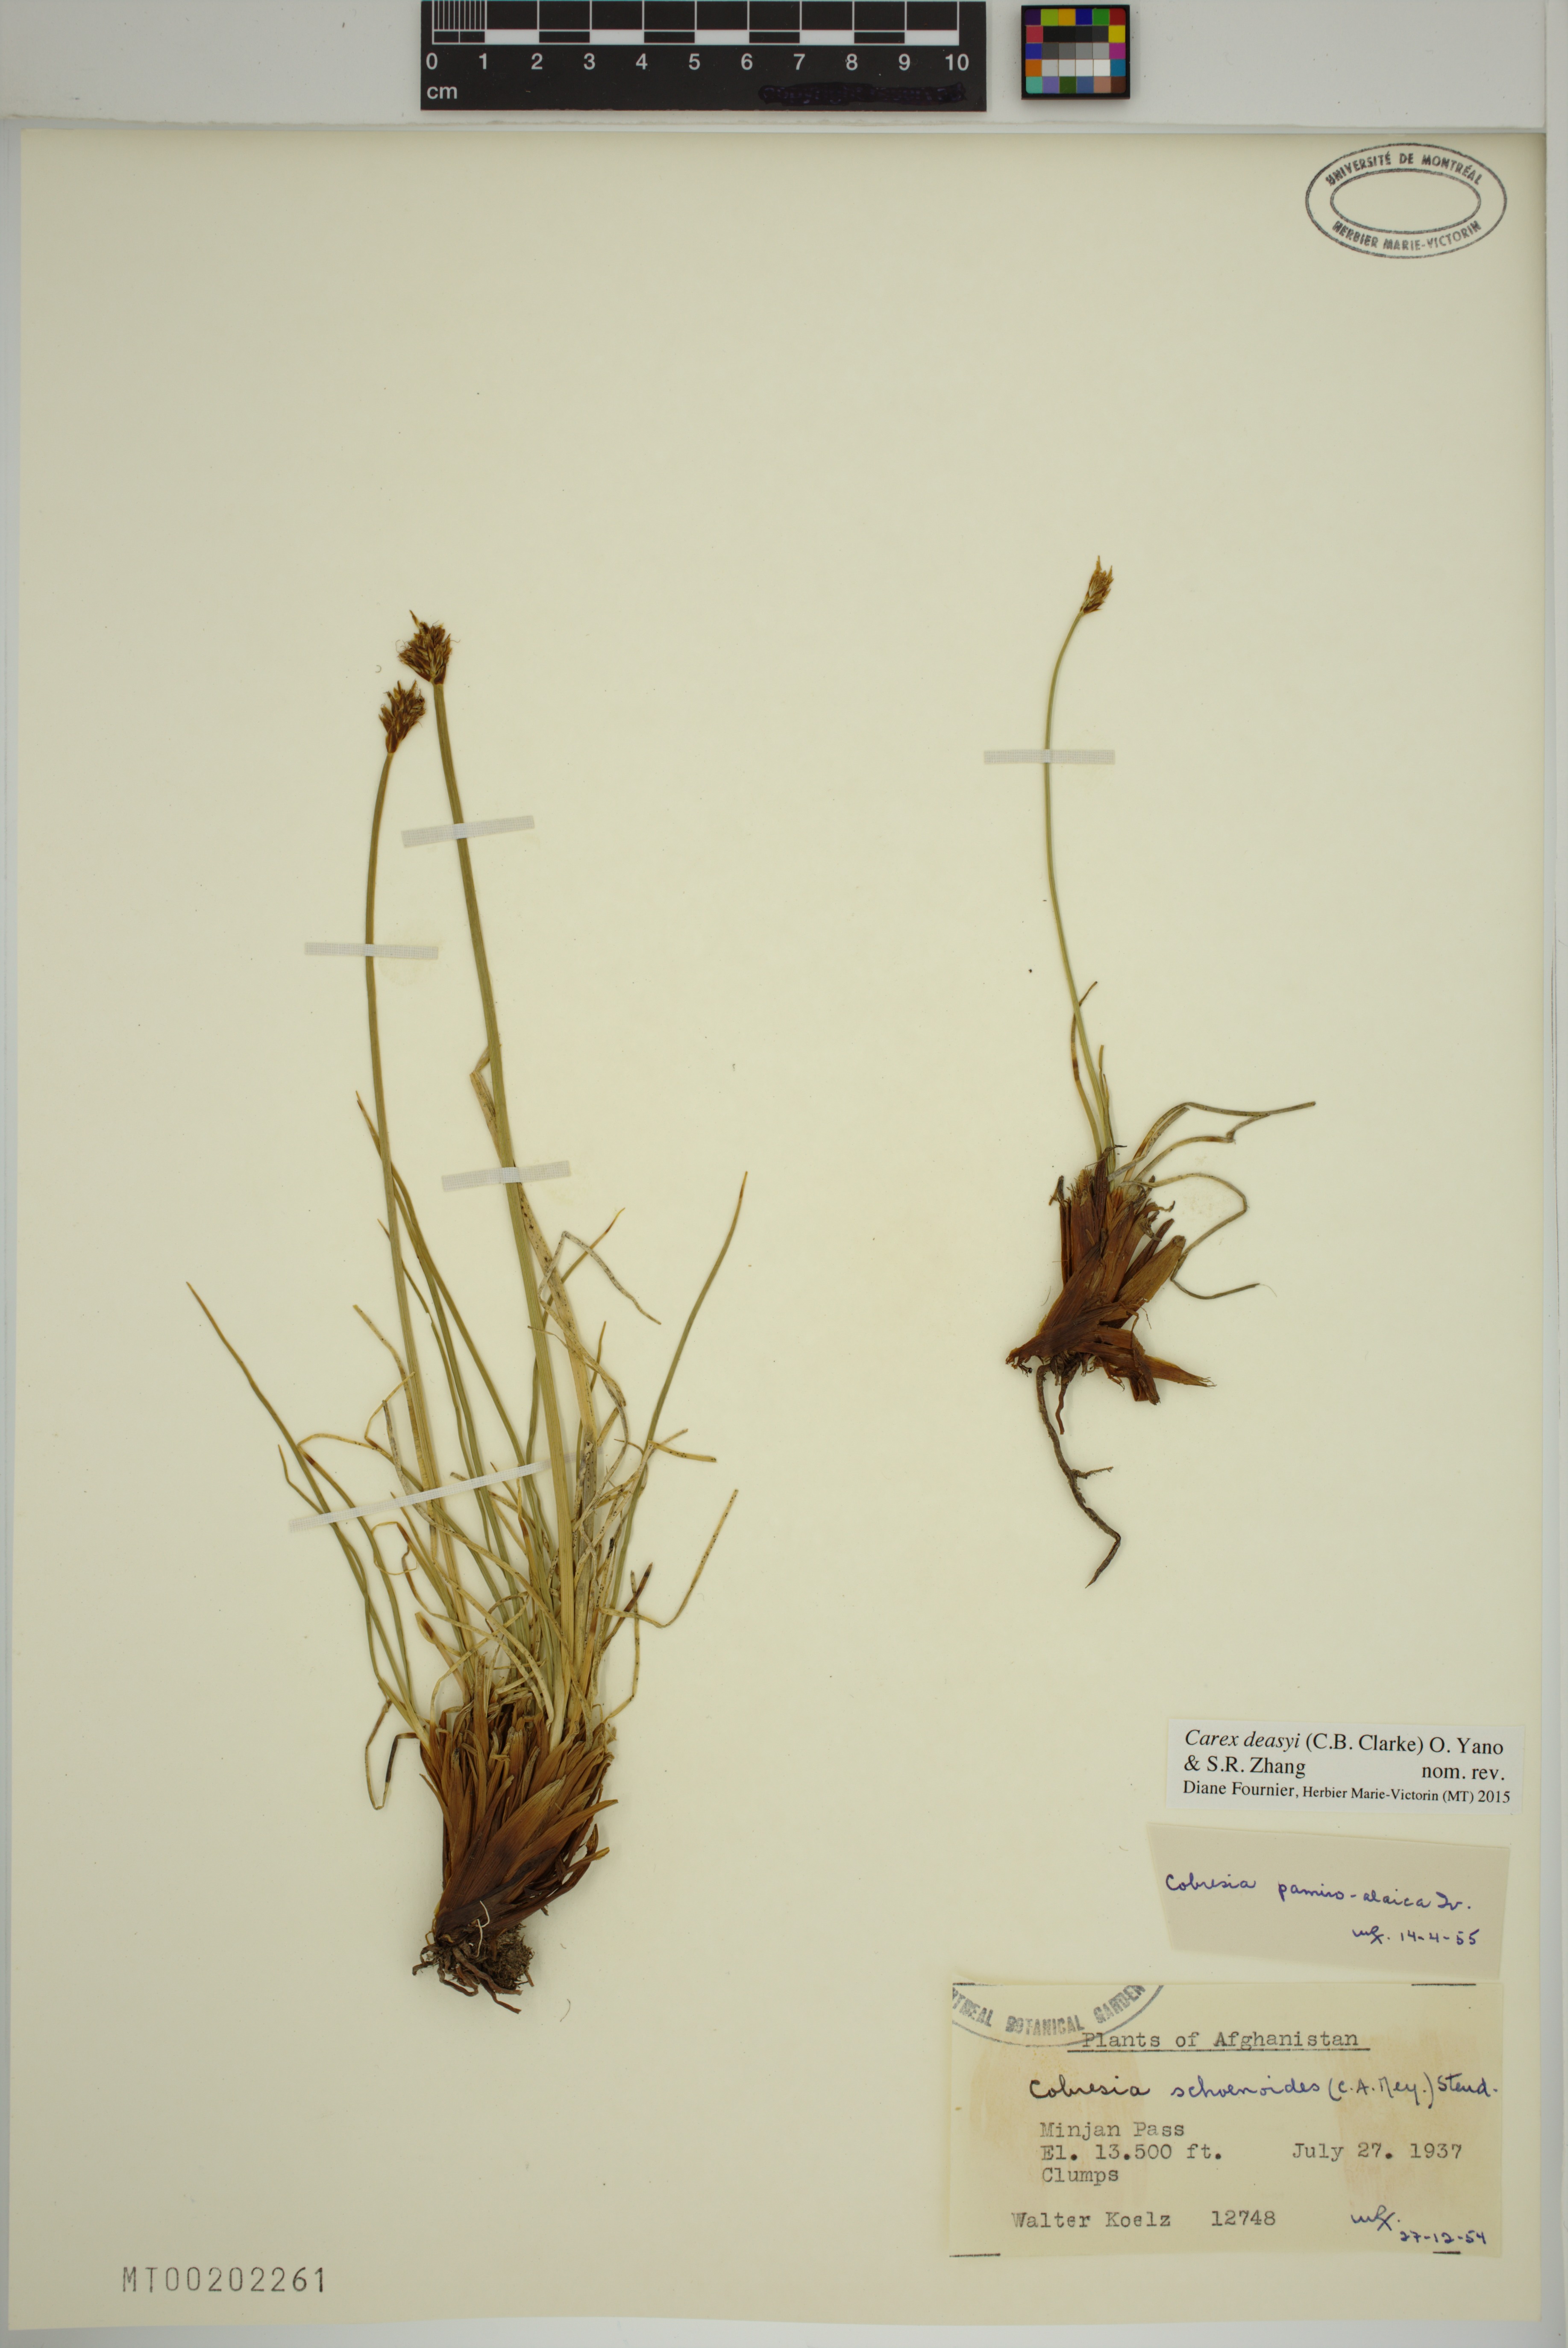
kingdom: Plantae
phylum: Tracheophyta
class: Liliopsida
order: Poales
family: Cyperaceae
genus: Carex
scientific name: Carex deasyi
